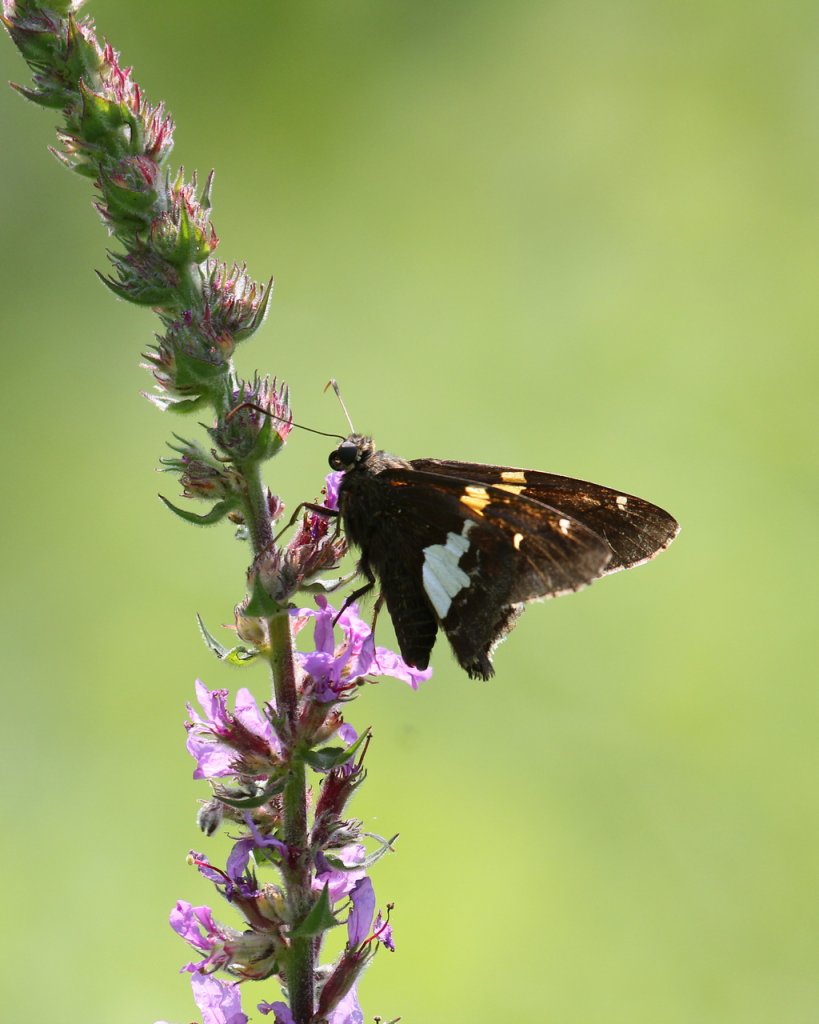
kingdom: Animalia
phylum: Arthropoda
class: Insecta
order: Lepidoptera
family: Hesperiidae
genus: Epargyreus
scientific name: Epargyreus clarus
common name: Silver-spotted Skipper
